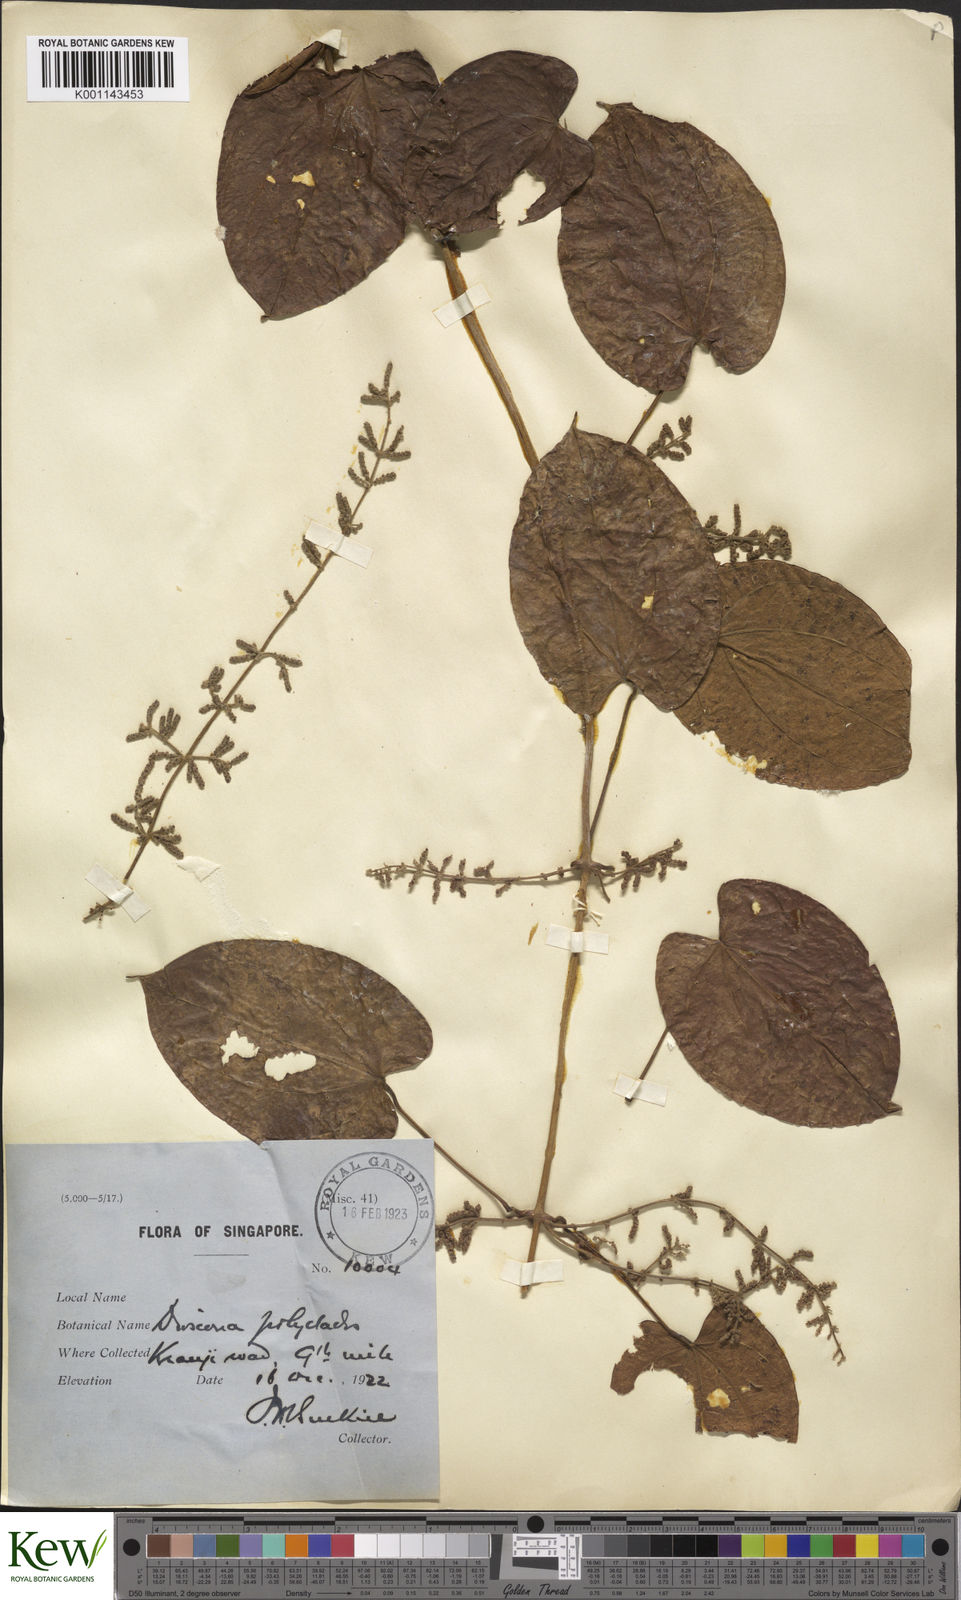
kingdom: Plantae
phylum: Tracheophyta
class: Liliopsida
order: Dioscoreales
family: Dioscoreaceae
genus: Dioscorea
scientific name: Dioscorea polyclados
